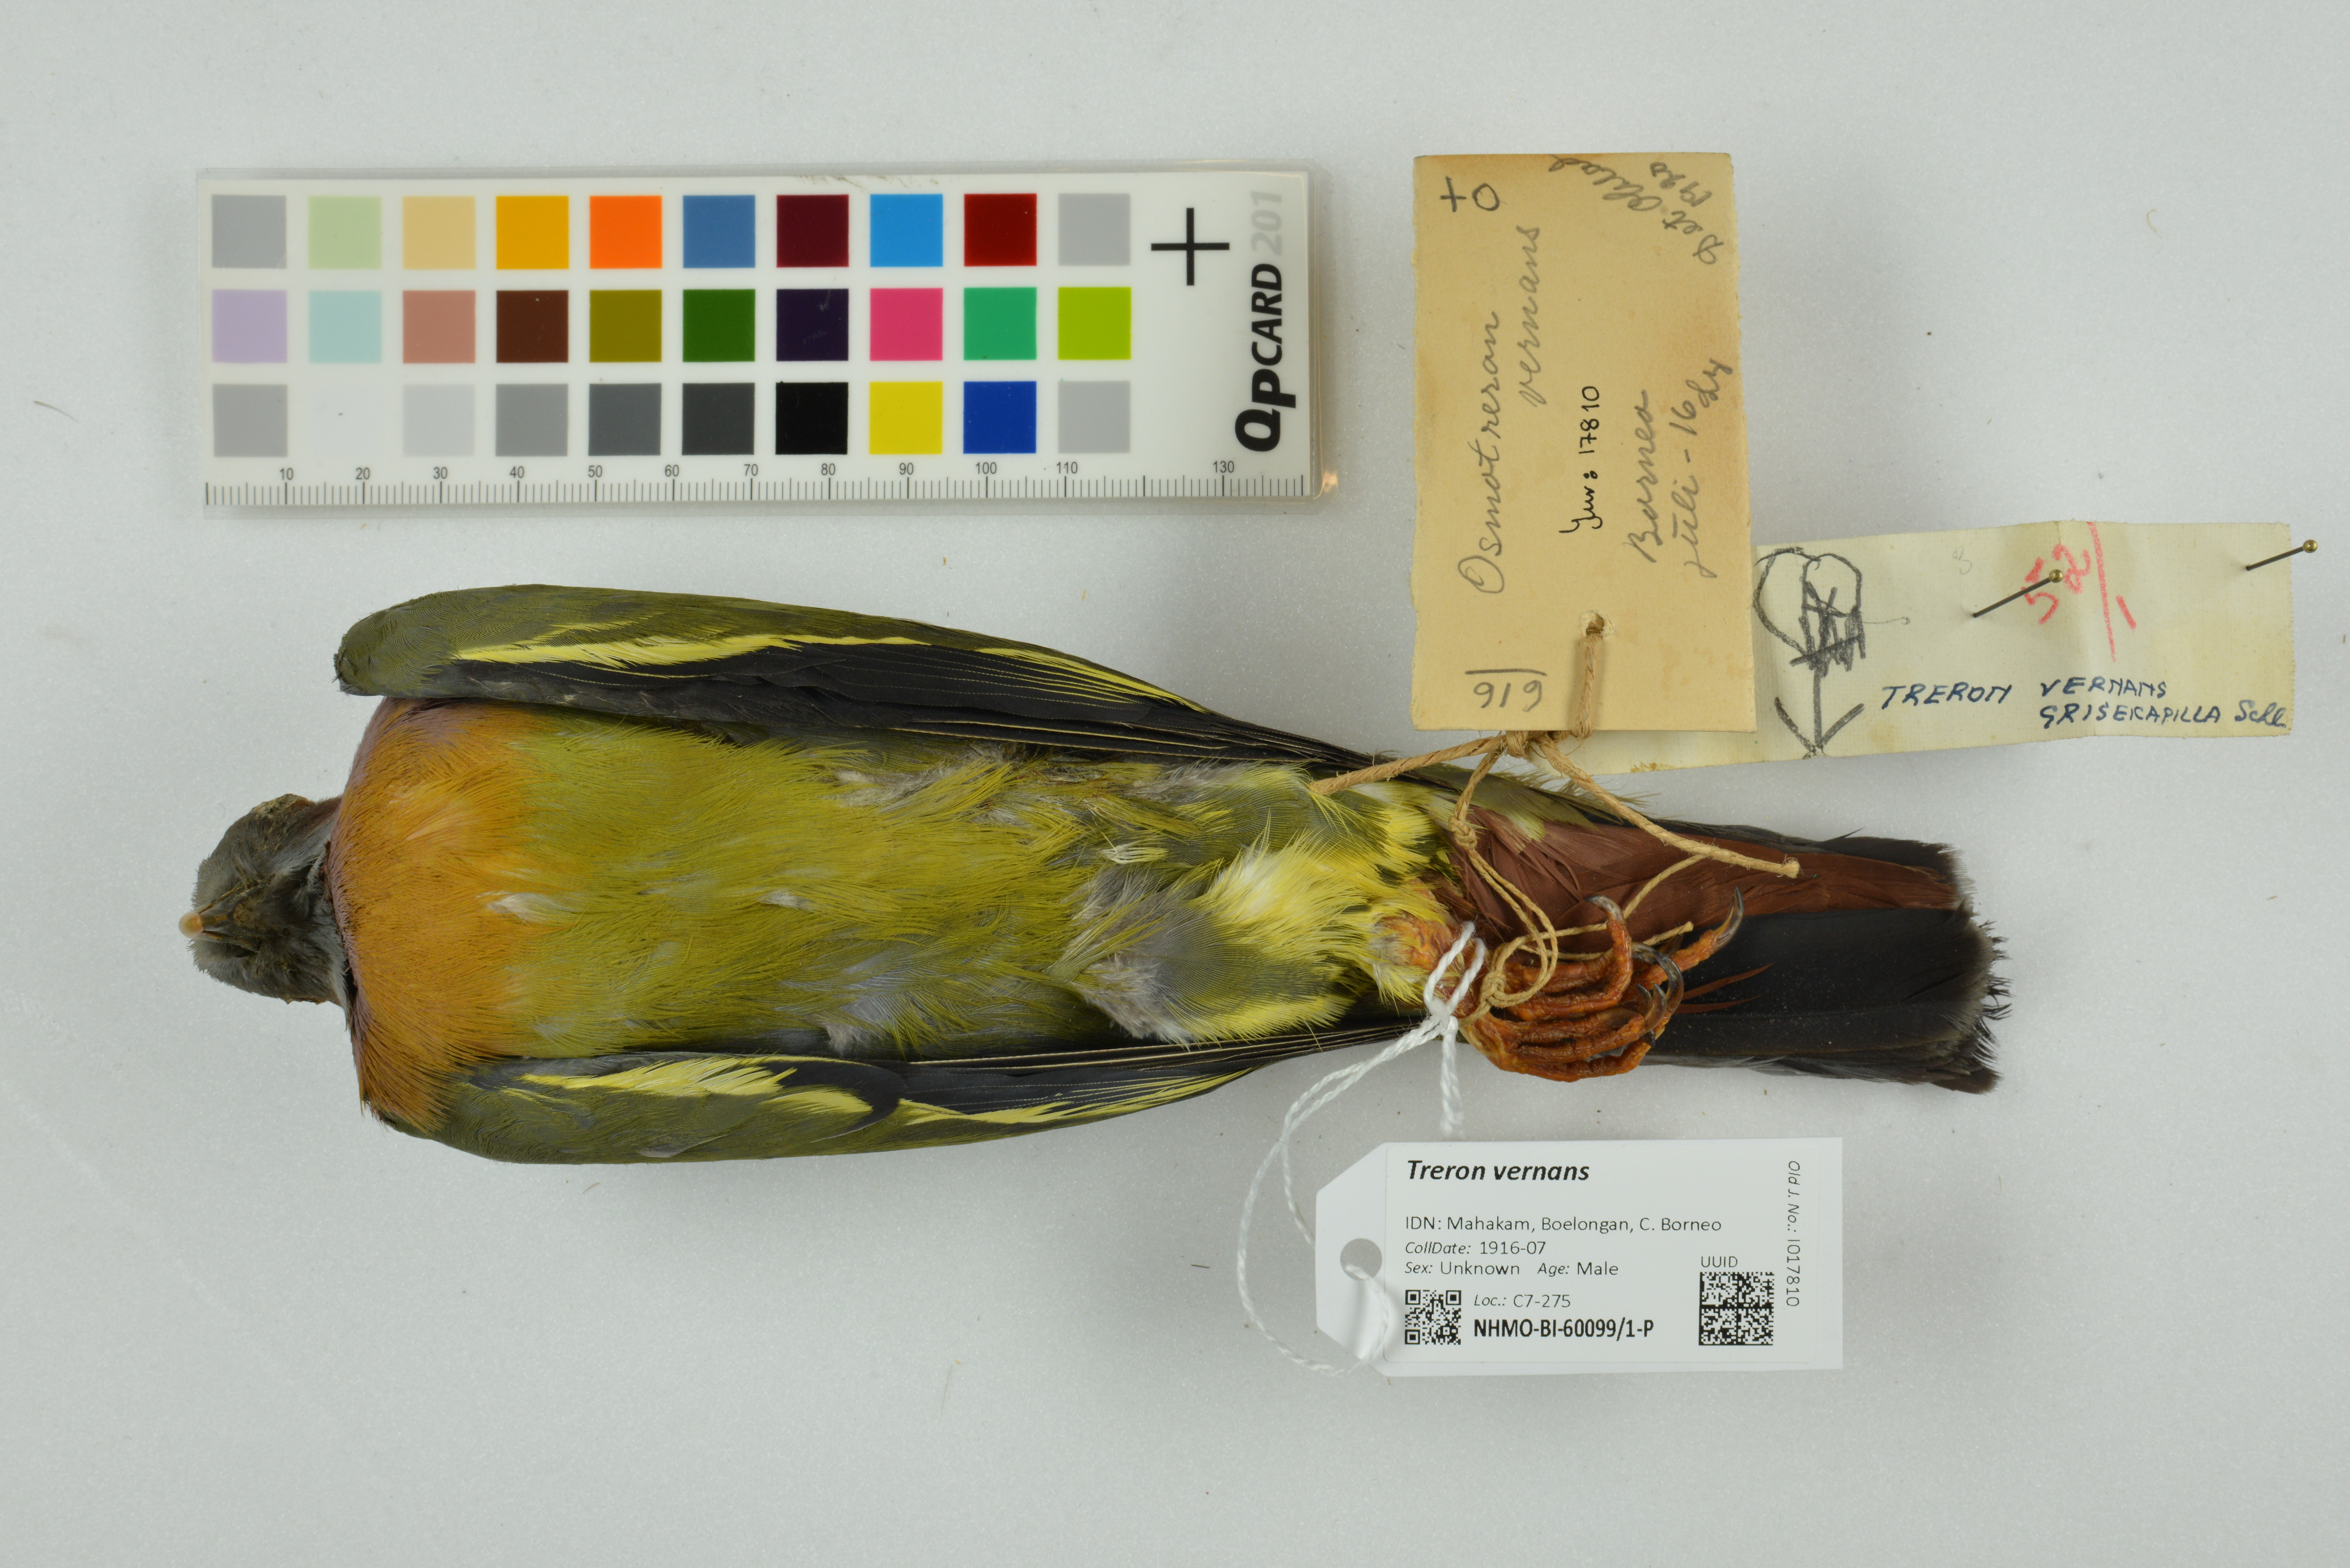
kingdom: Animalia
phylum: Chordata
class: Aves
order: Columbiformes
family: Columbidae
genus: Treron
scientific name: Treron vernans
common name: Pink-necked green pigeon
